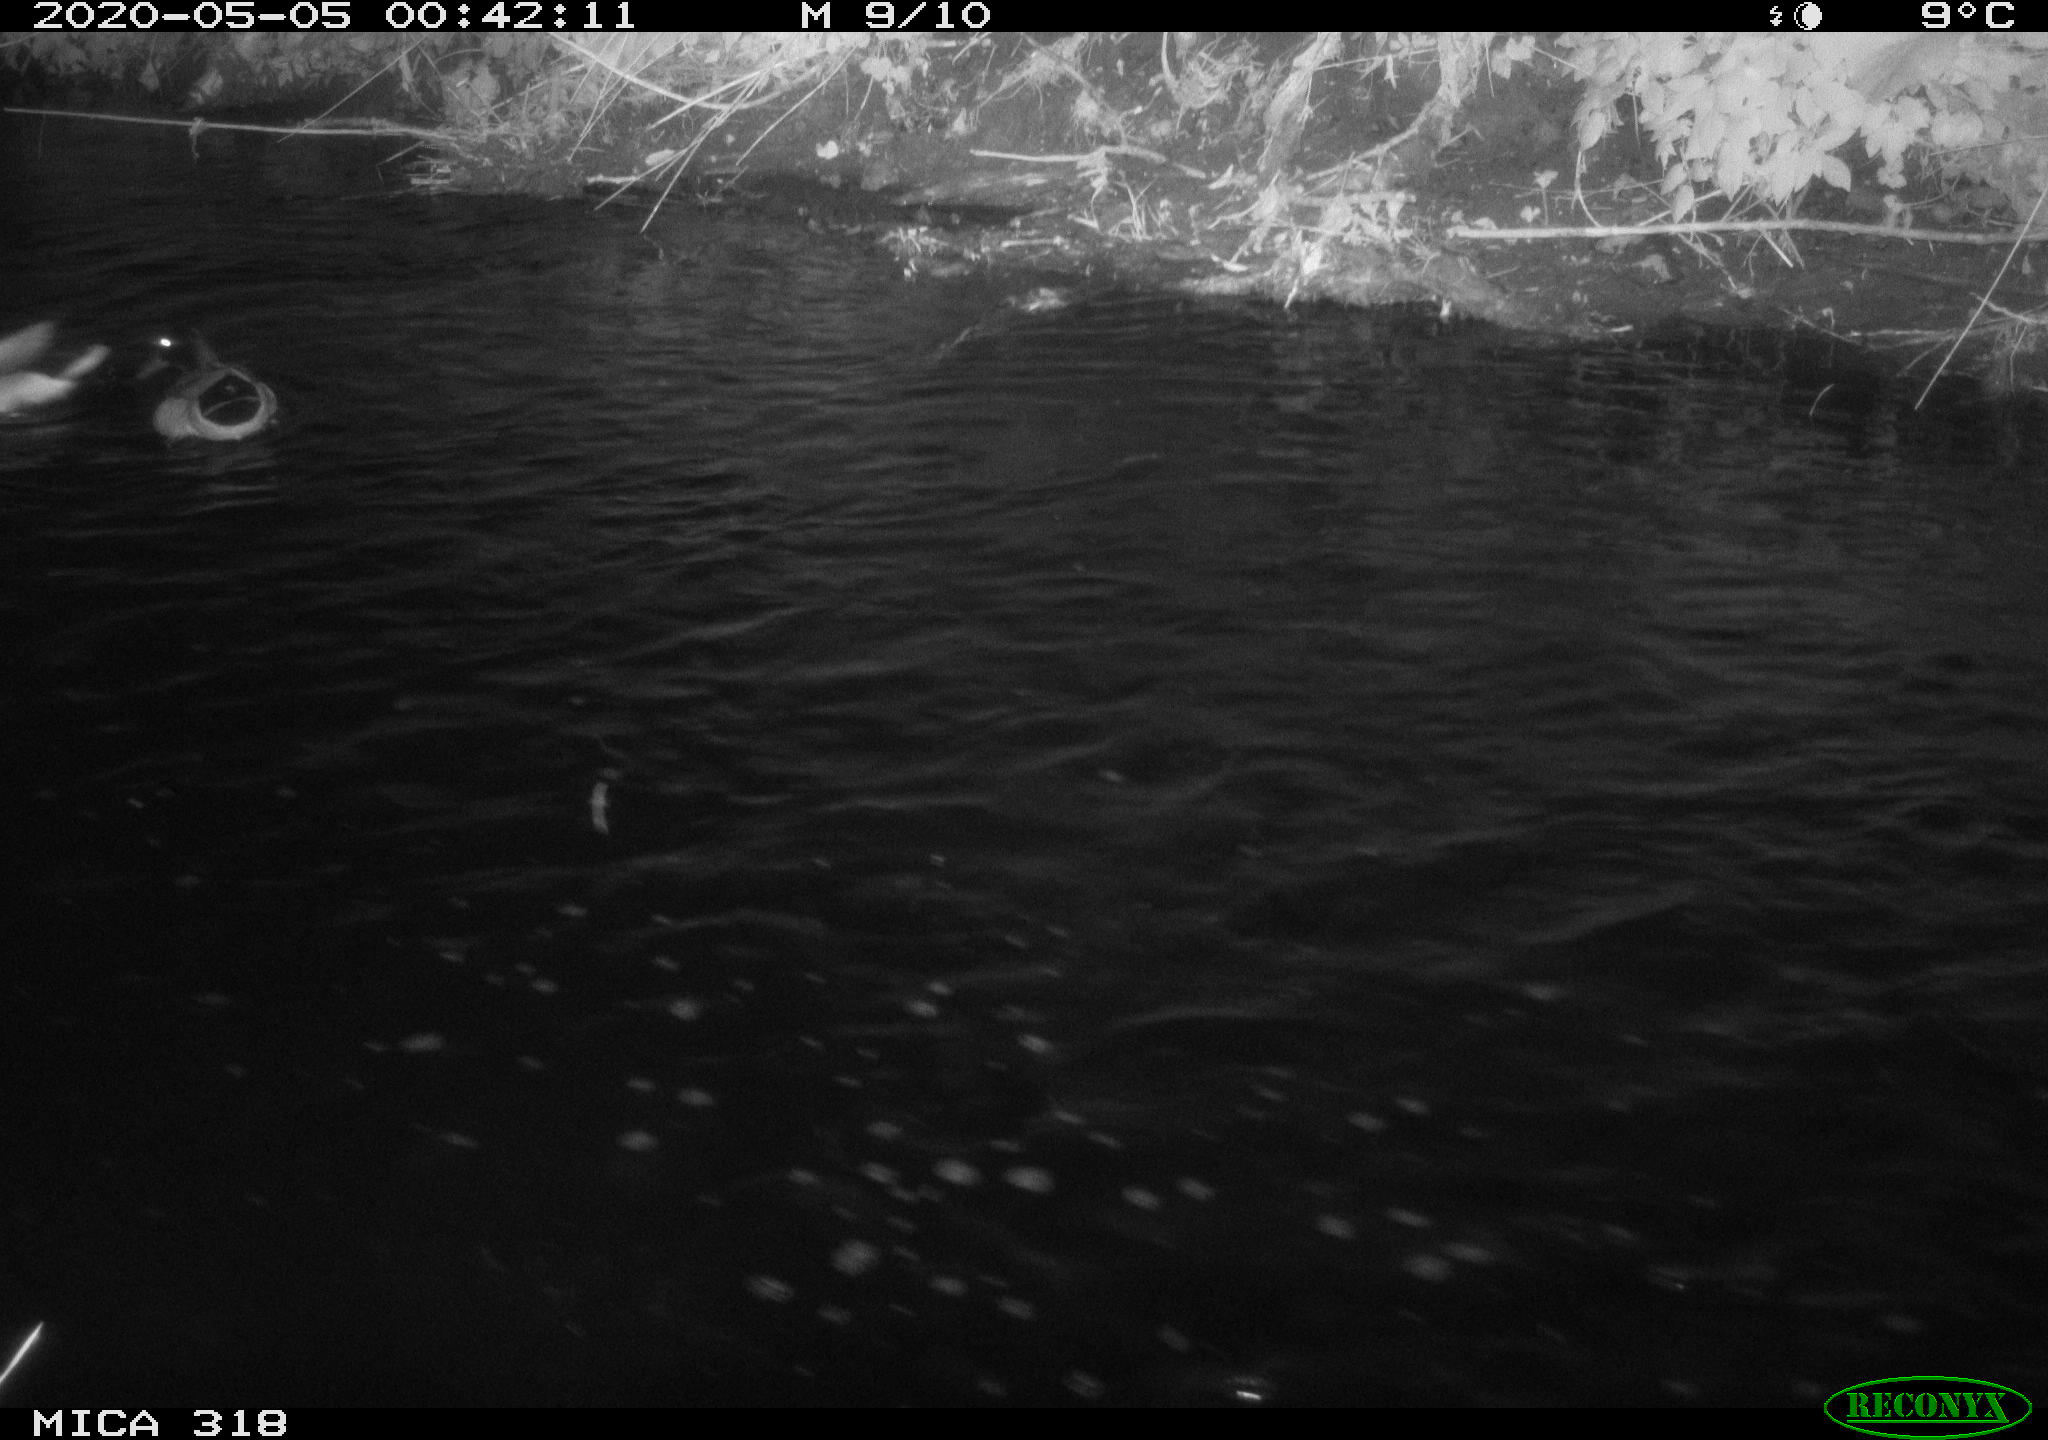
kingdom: Animalia
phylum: Chordata
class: Aves
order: Anseriformes
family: Anatidae
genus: Anas
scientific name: Anas platyrhynchos
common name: Mallard
